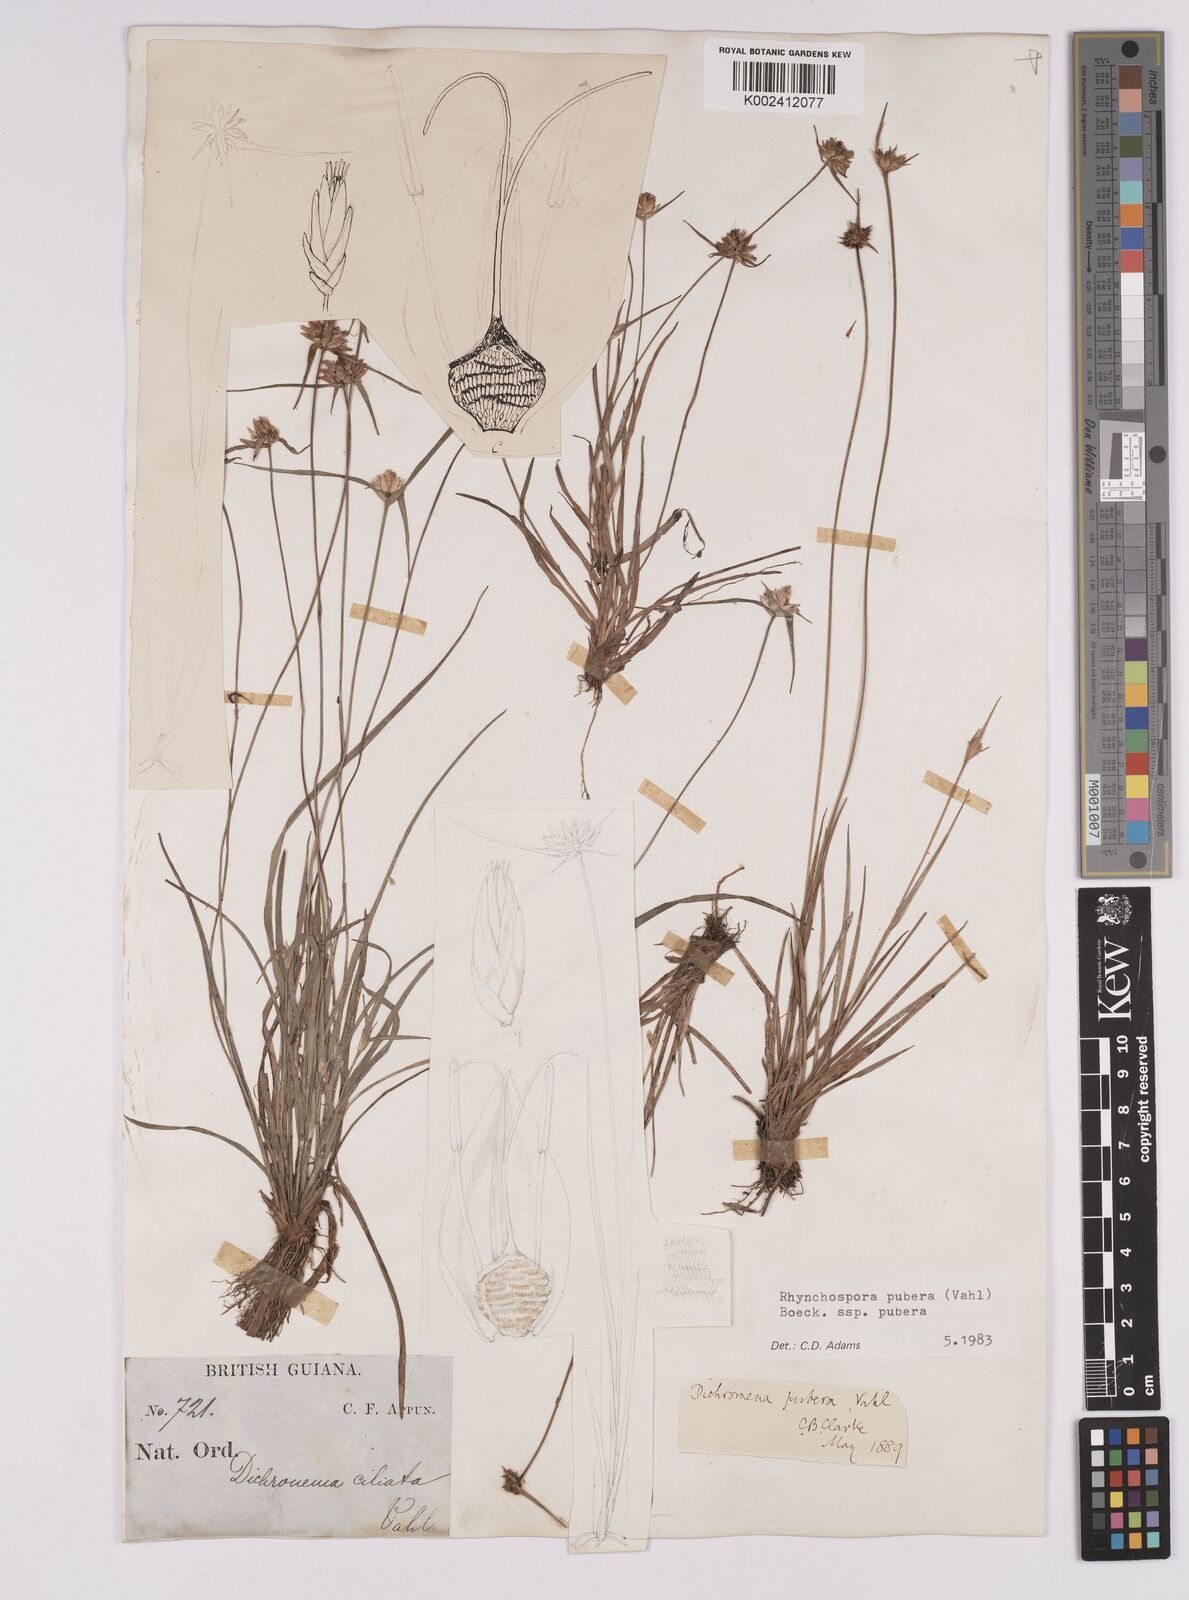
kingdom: Plantae
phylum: Tracheophyta
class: Liliopsida
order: Poales
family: Cyperaceae
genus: Rhynchospora
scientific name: Rhynchospora pubera
